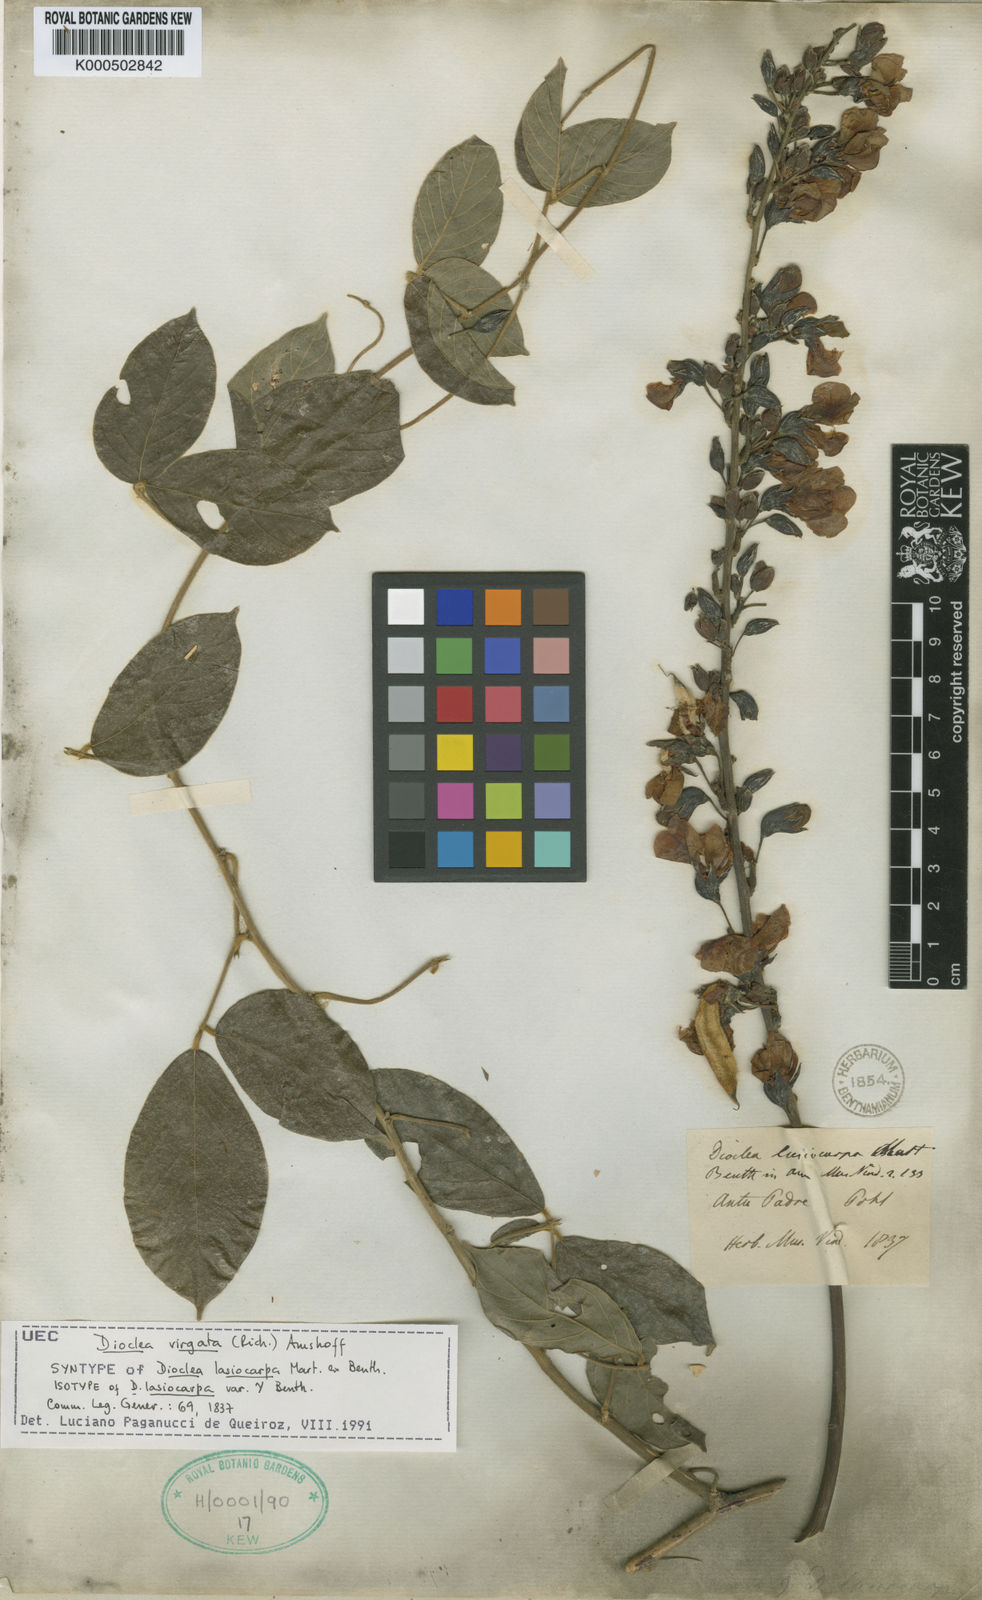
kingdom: Plantae
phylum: Tracheophyta
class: Magnoliopsida
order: Fabales
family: Fabaceae
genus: Dioclea
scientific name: Dioclea virgata
